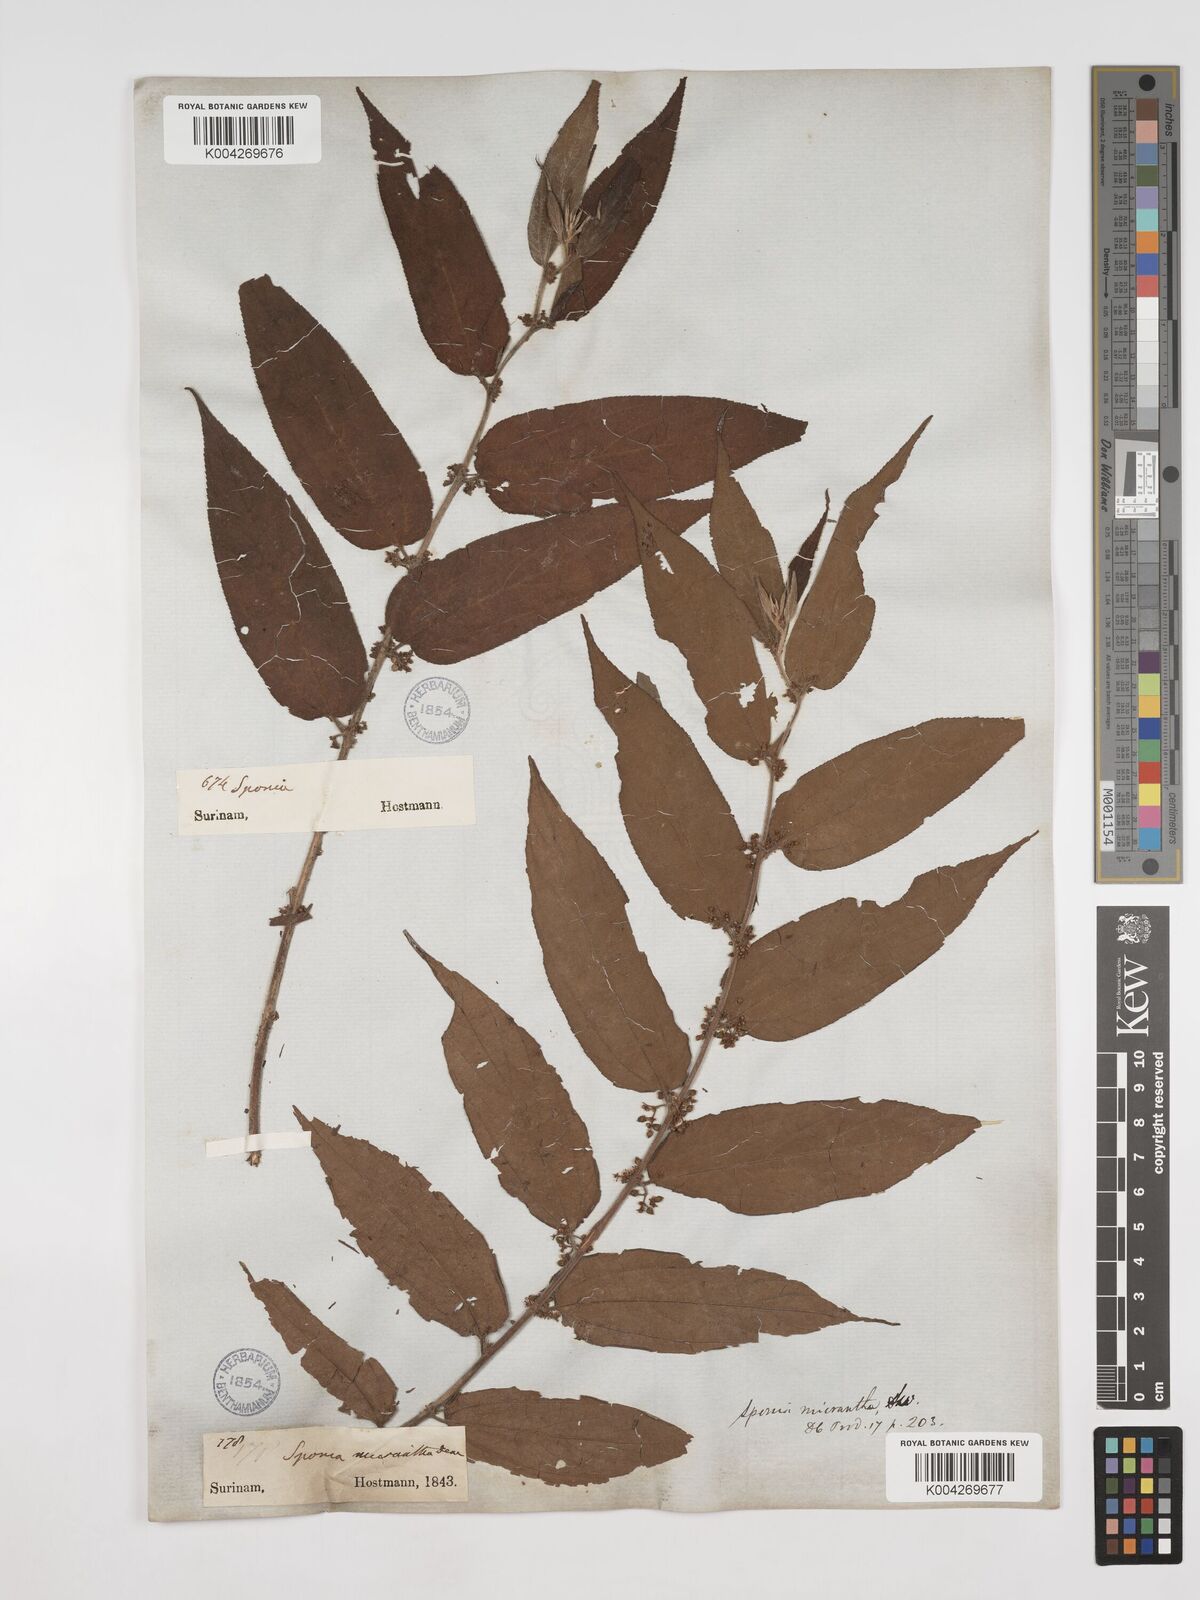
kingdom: Plantae
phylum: Tracheophyta
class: Magnoliopsida
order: Rosales
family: Cannabaceae
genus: Trema
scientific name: Trema micranthum
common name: Jamaican nettletree
